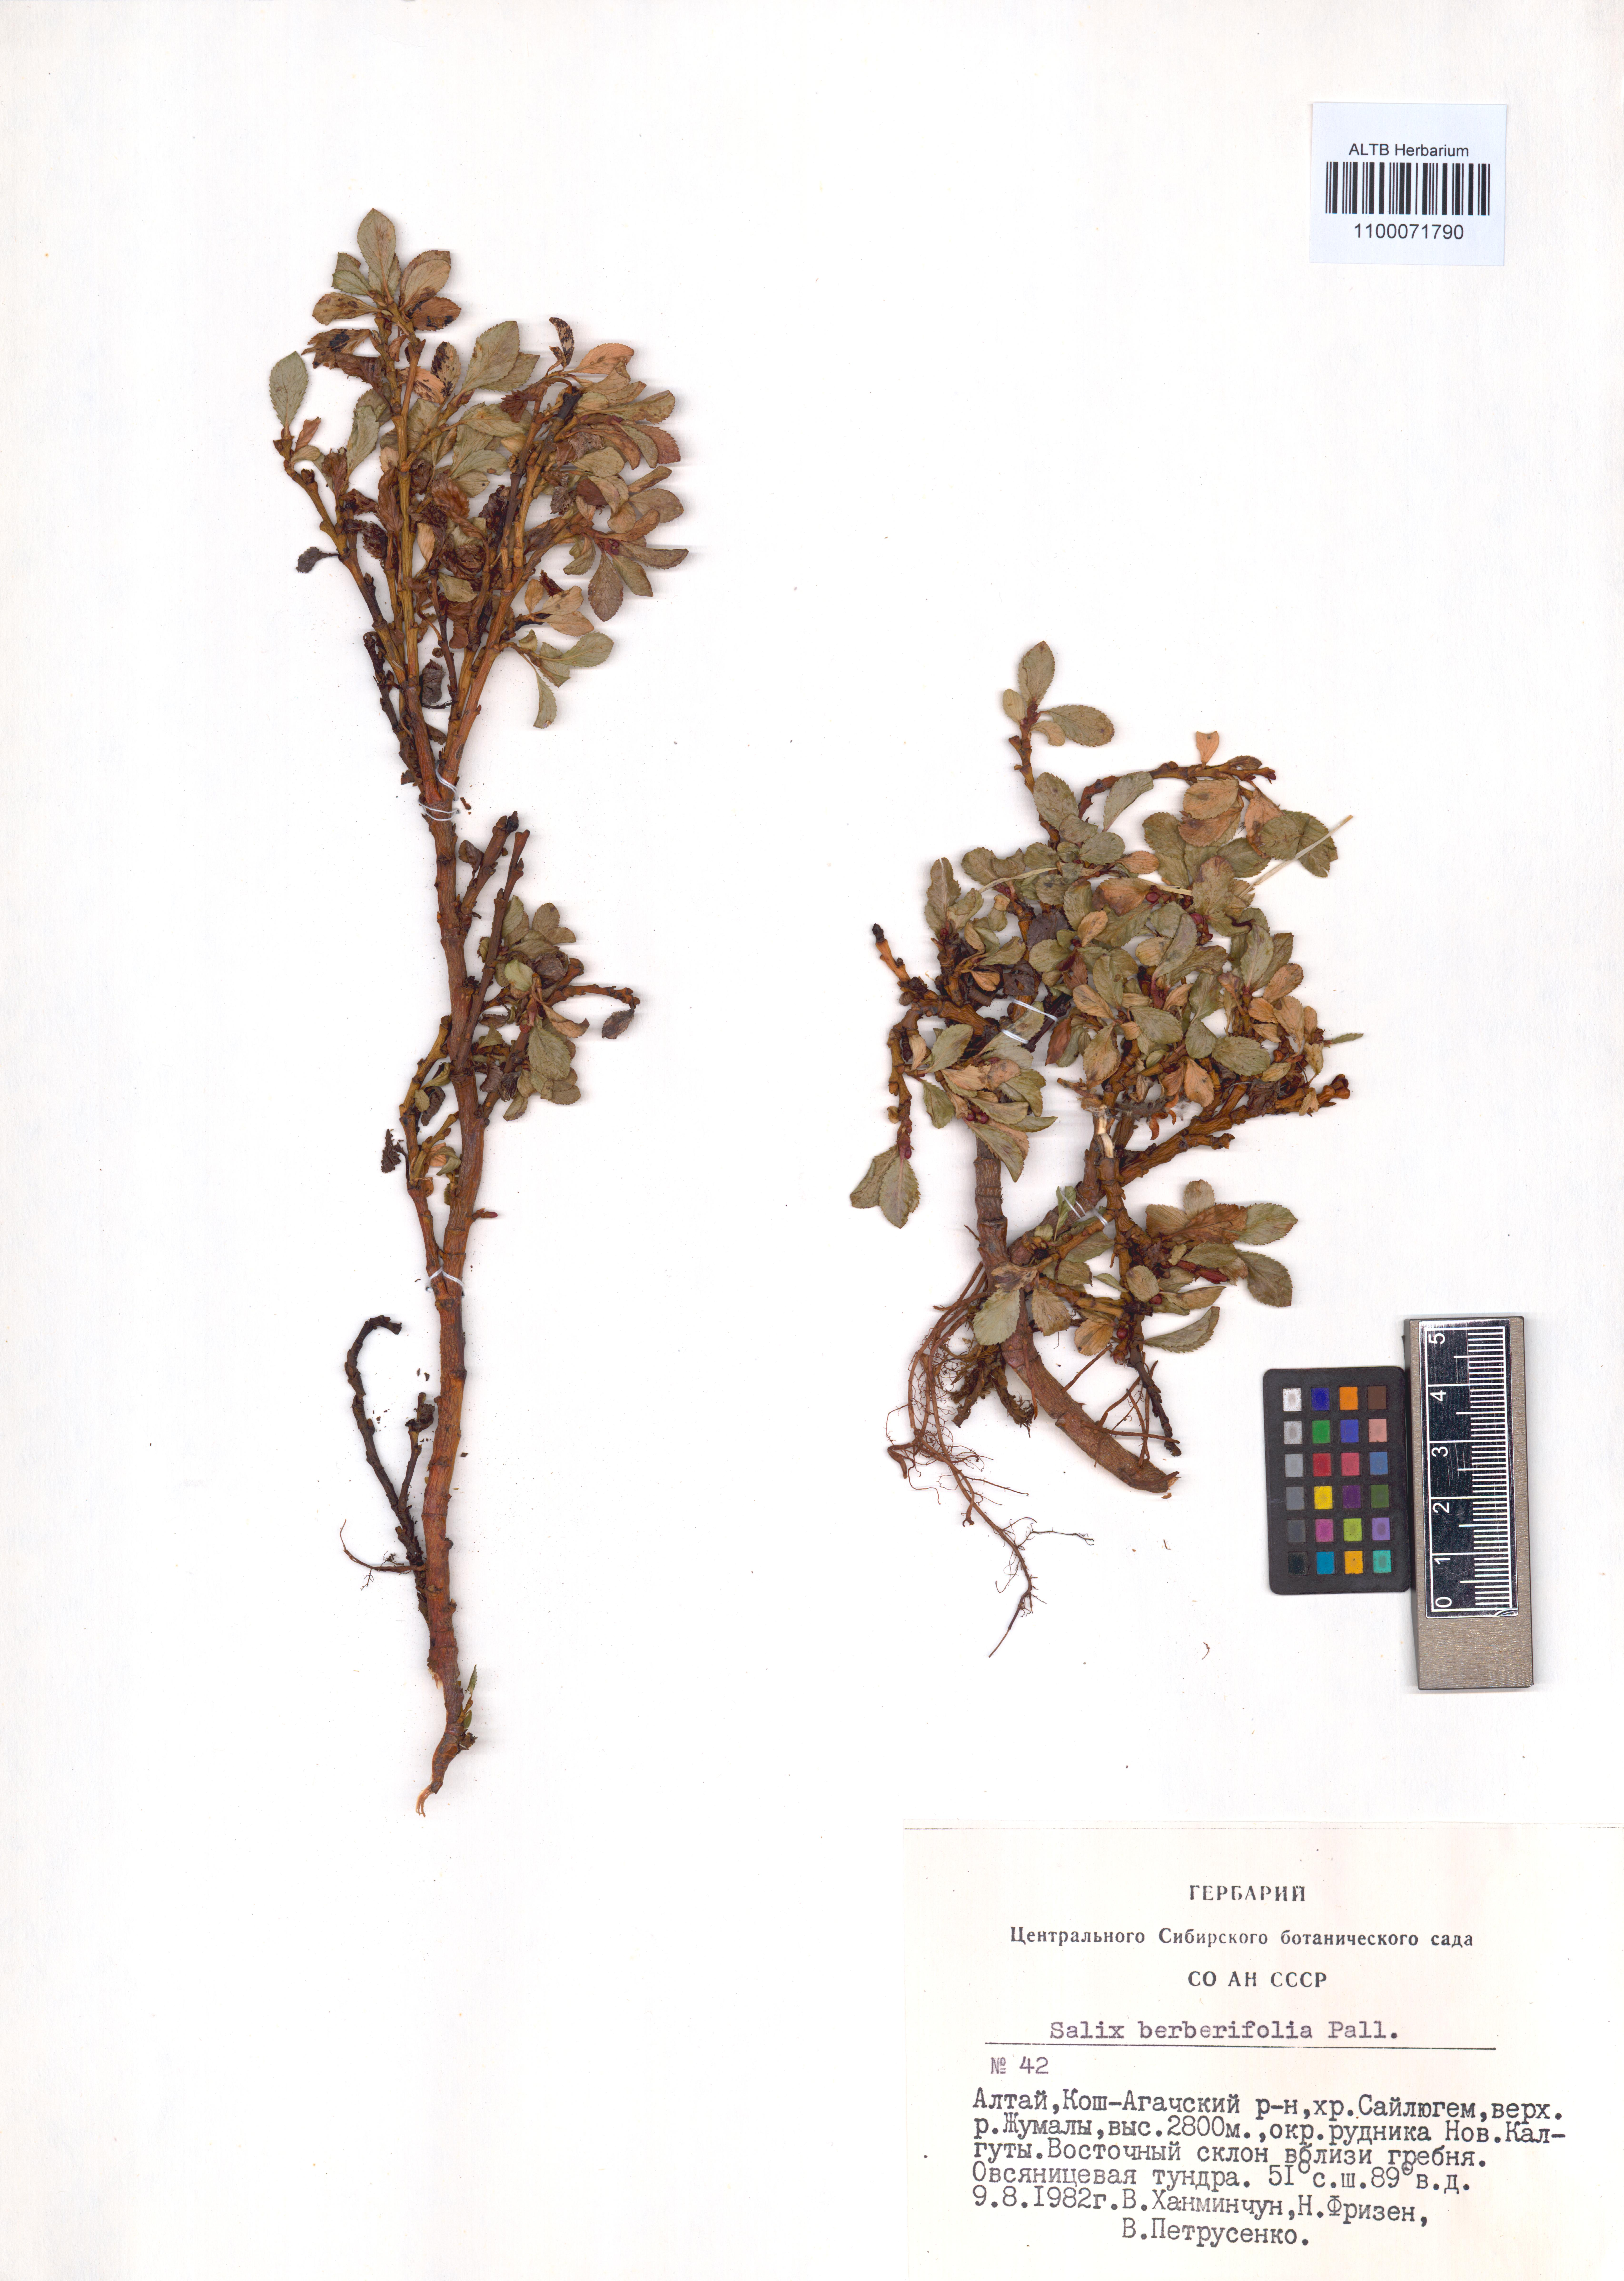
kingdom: Plantae
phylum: Tracheophyta
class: Magnoliopsida
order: Malpighiales
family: Salicaceae
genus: Salix
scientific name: Salix berberifolia
